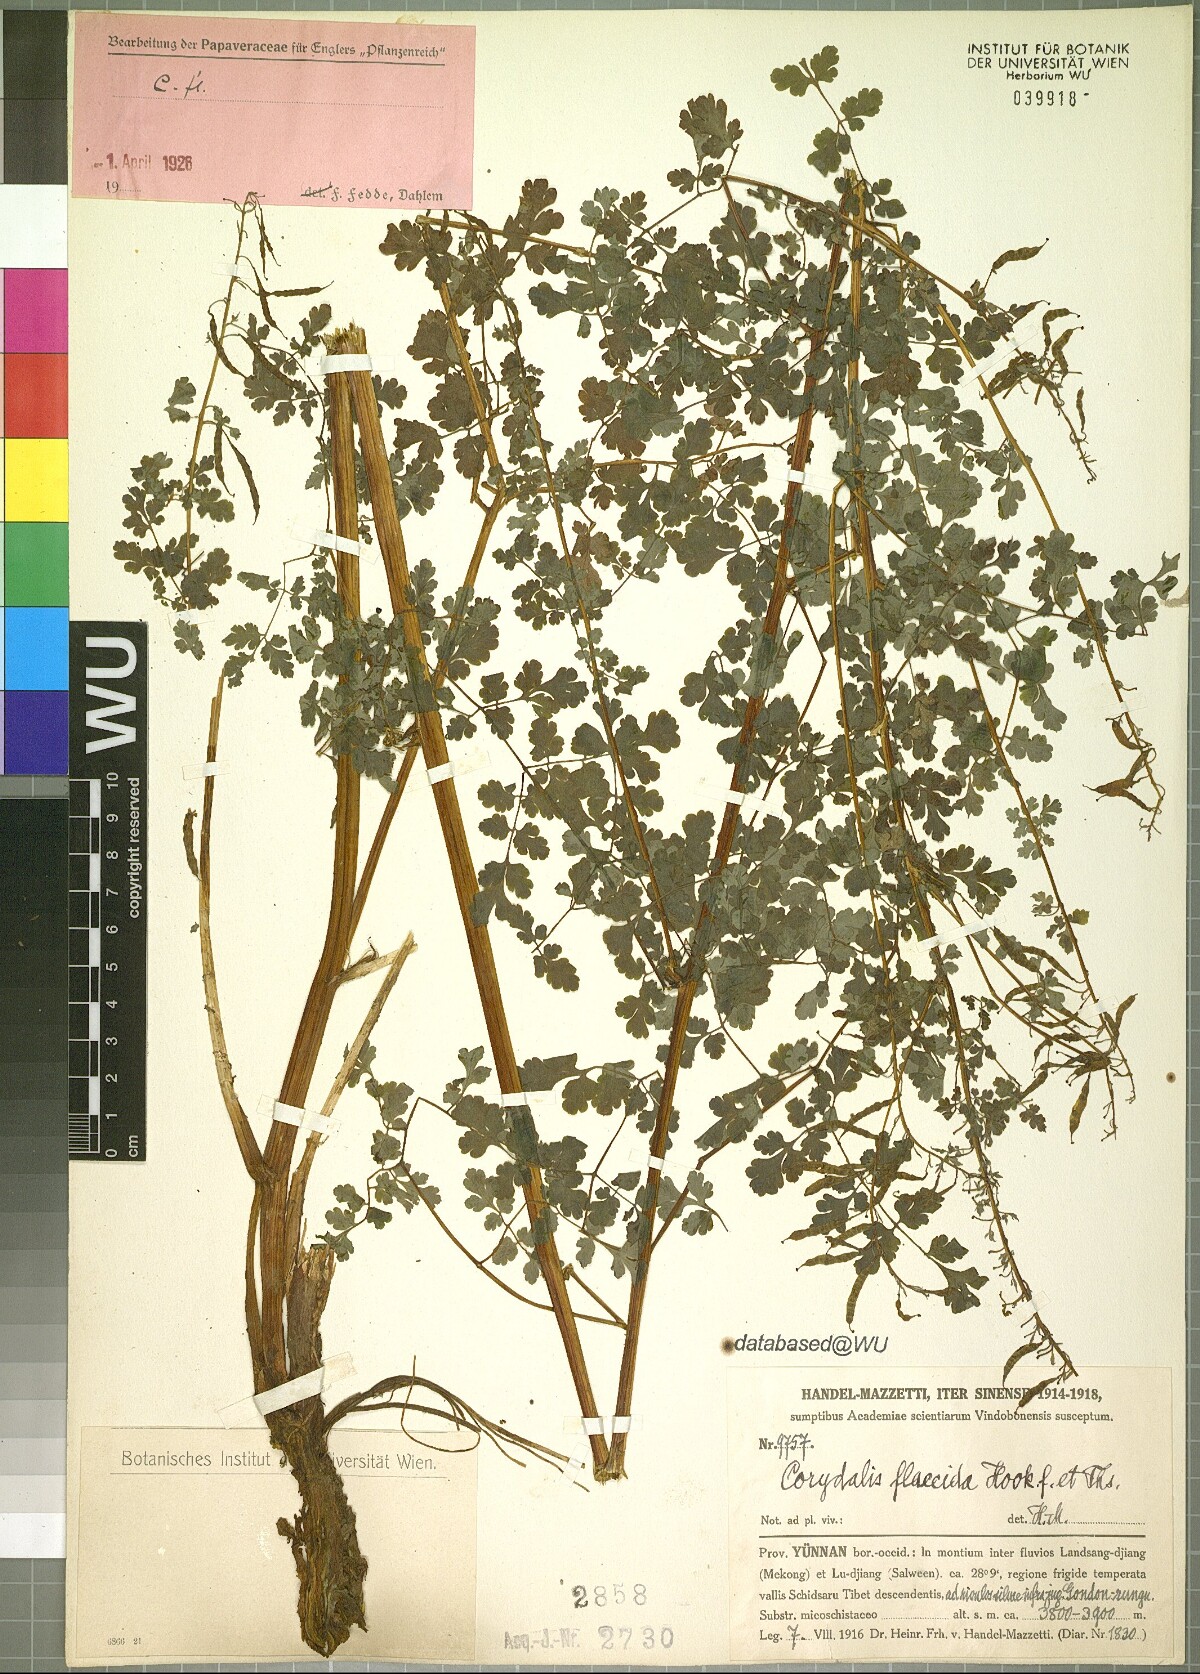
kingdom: Plantae
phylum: Tracheophyta
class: Magnoliopsida
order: Ranunculales
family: Papaveraceae
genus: Corydalis
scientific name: Corydalis flaccida
